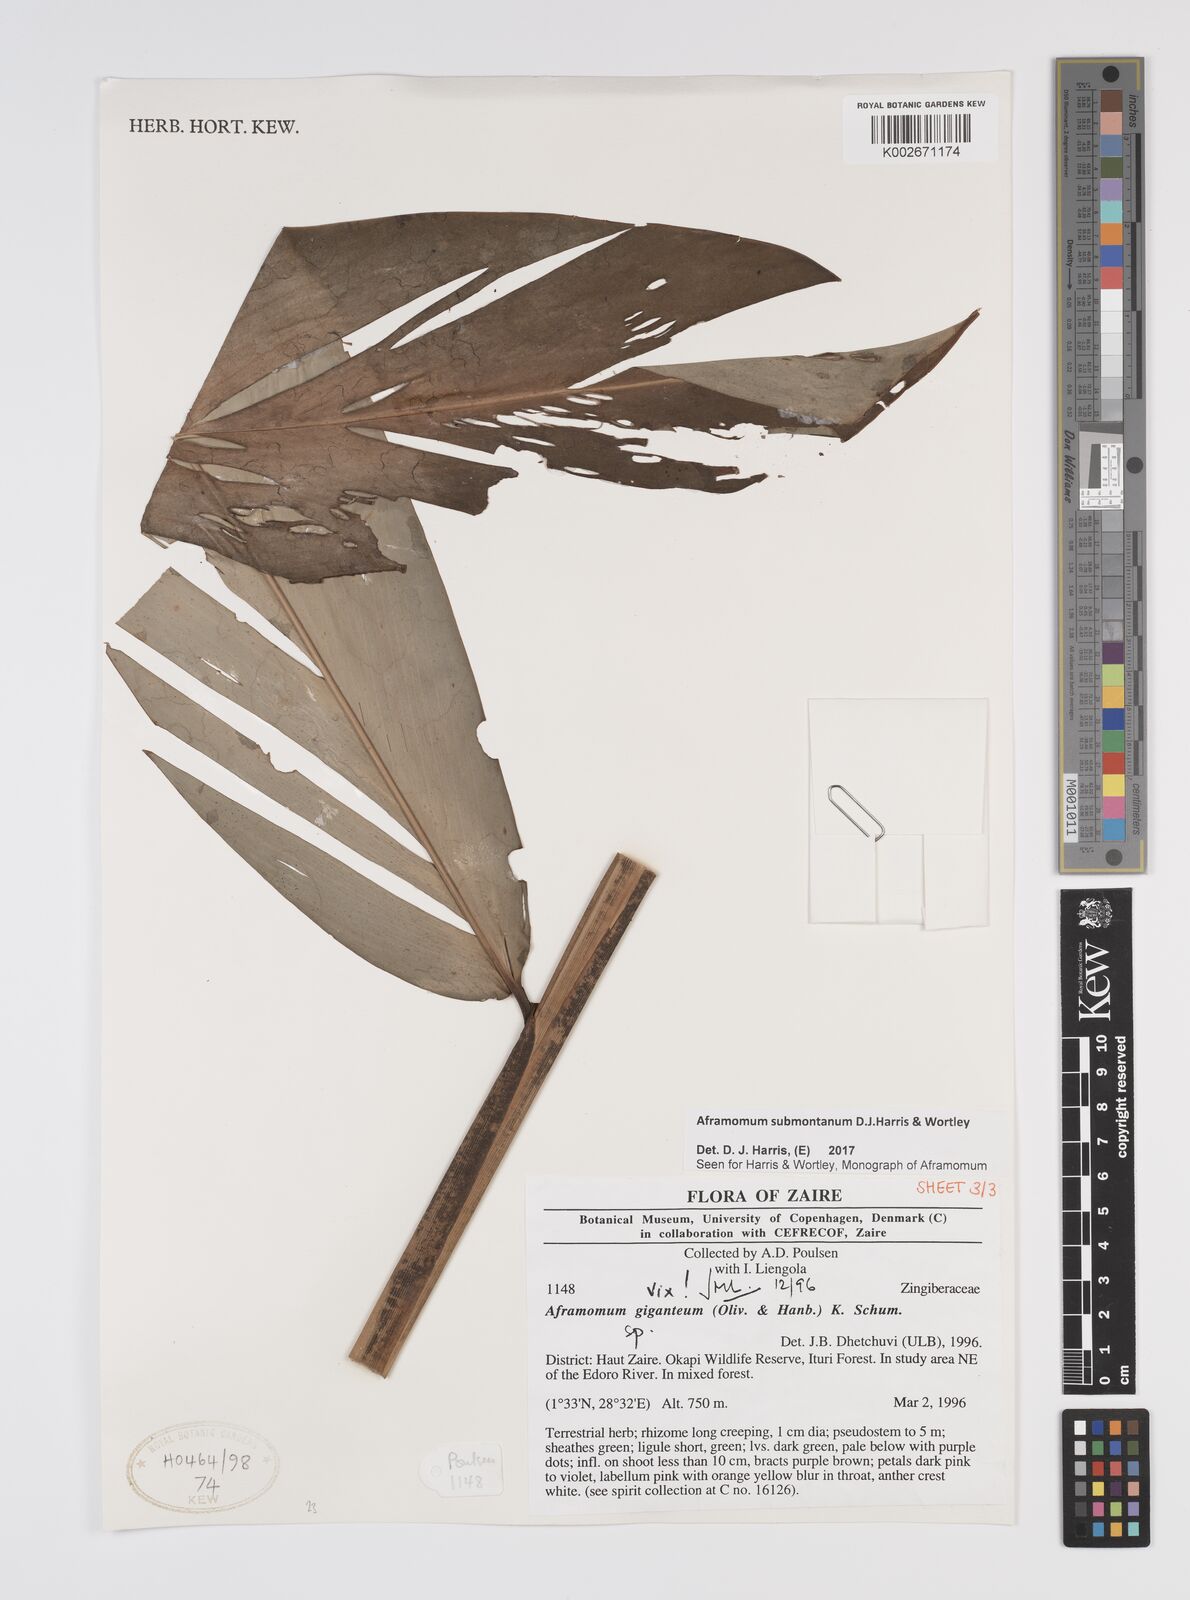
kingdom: Plantae
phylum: Tracheophyta
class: Liliopsida
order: Zingiberales
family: Zingiberaceae
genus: Aframomum
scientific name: Aframomum submontanum
